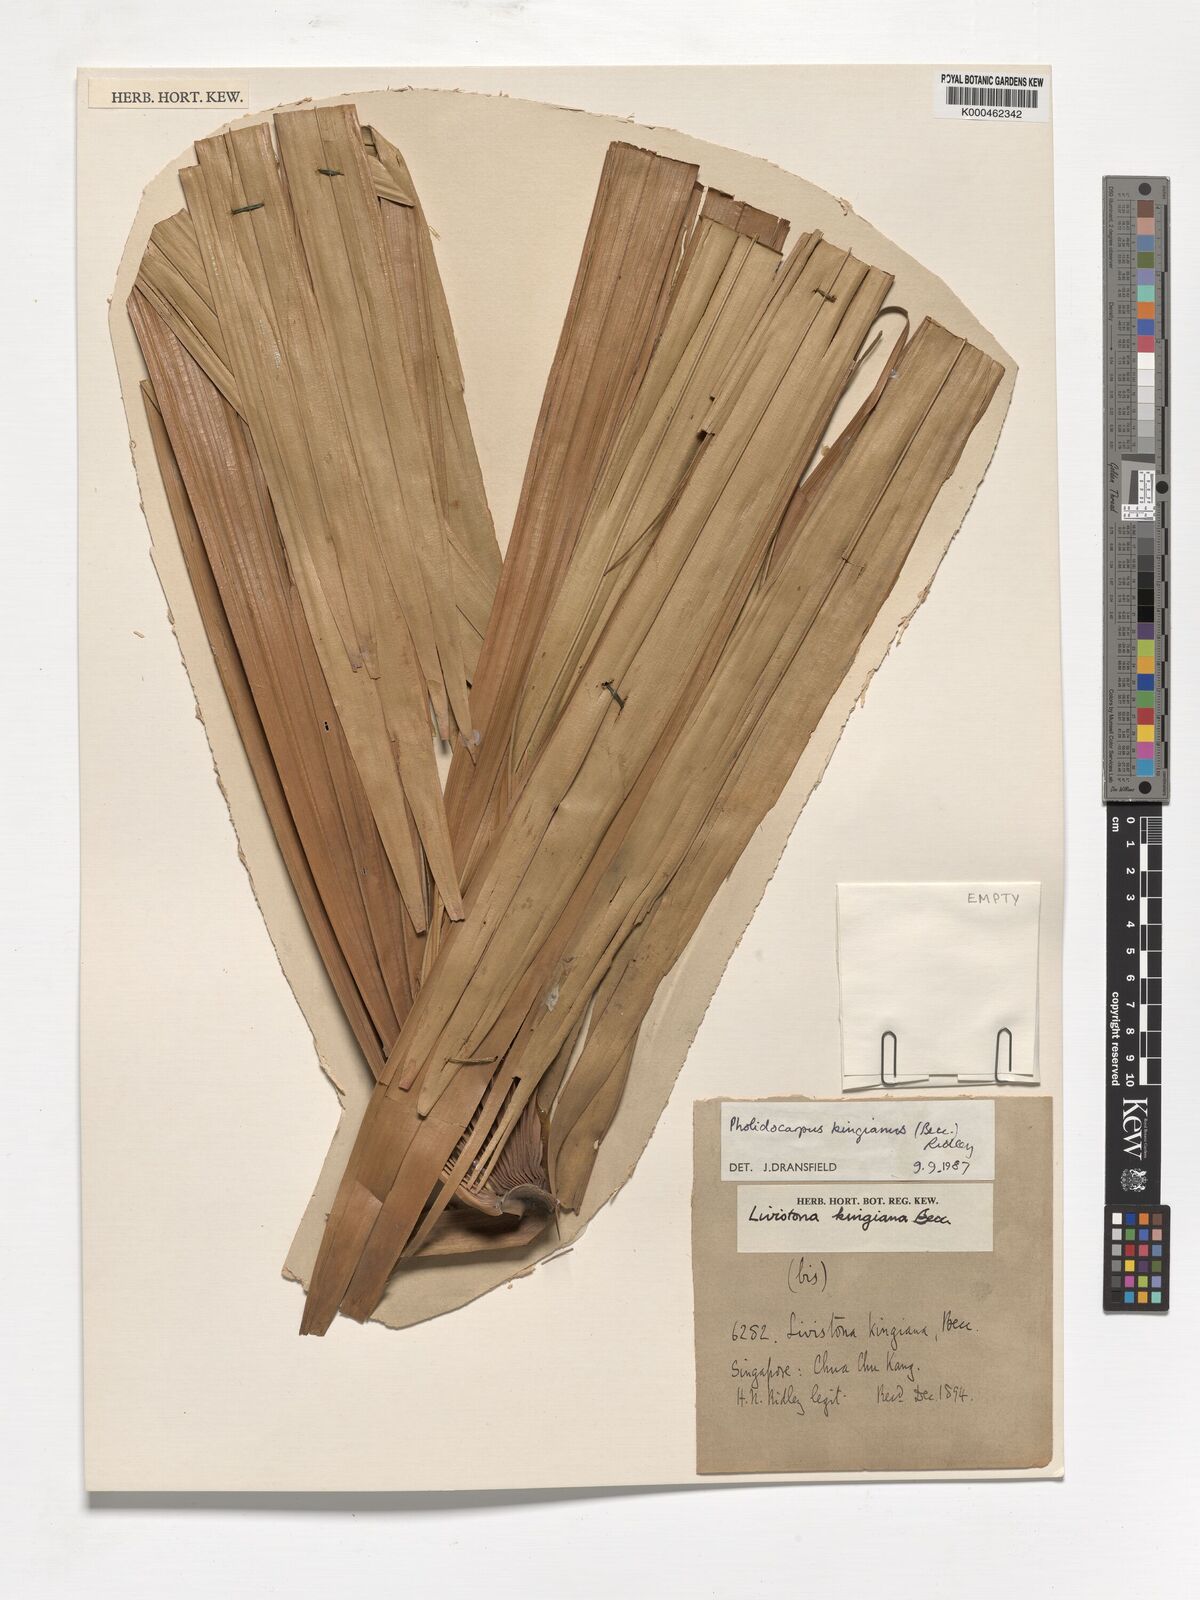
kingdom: Plantae
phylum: Tracheophyta
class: Liliopsida
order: Arecales
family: Arecaceae
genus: Pholidocarpus
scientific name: Pholidocarpus kingianus
